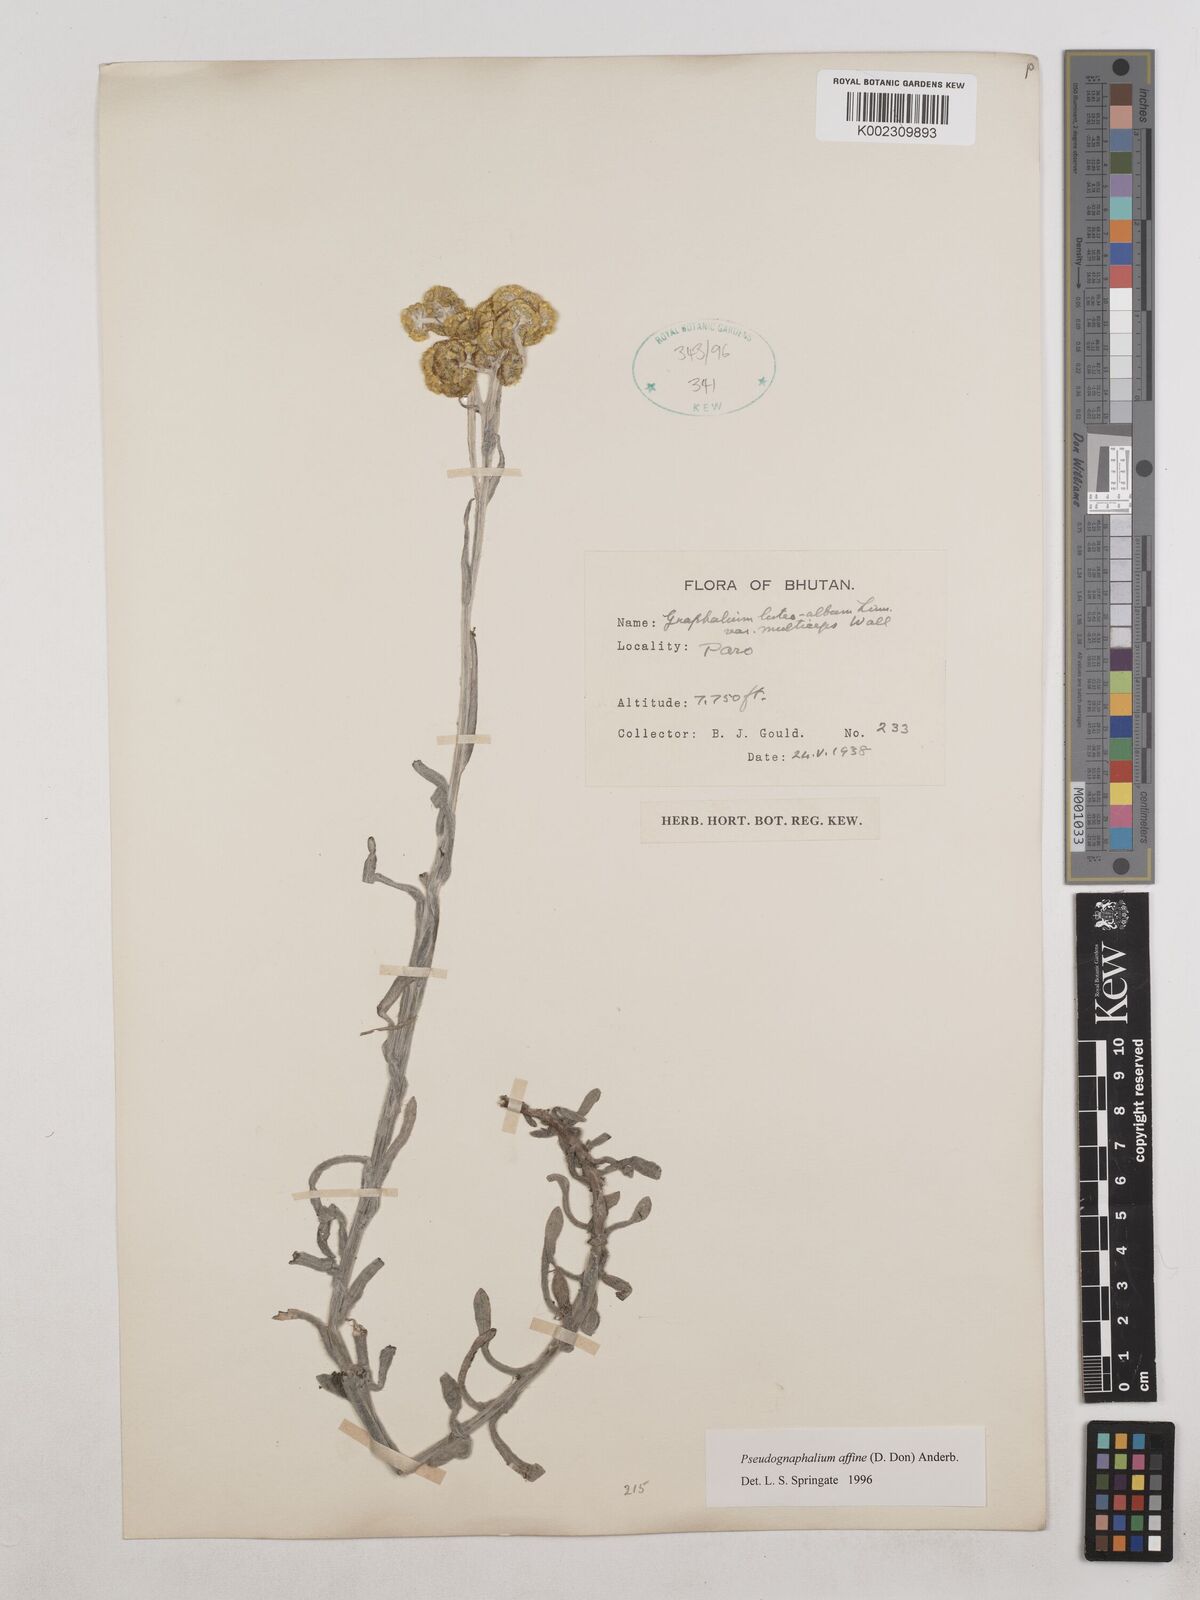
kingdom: Plantae
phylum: Tracheophyta
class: Magnoliopsida
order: Asterales
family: Asteraceae
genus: Pseudognaphalium
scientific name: Pseudognaphalium affine
